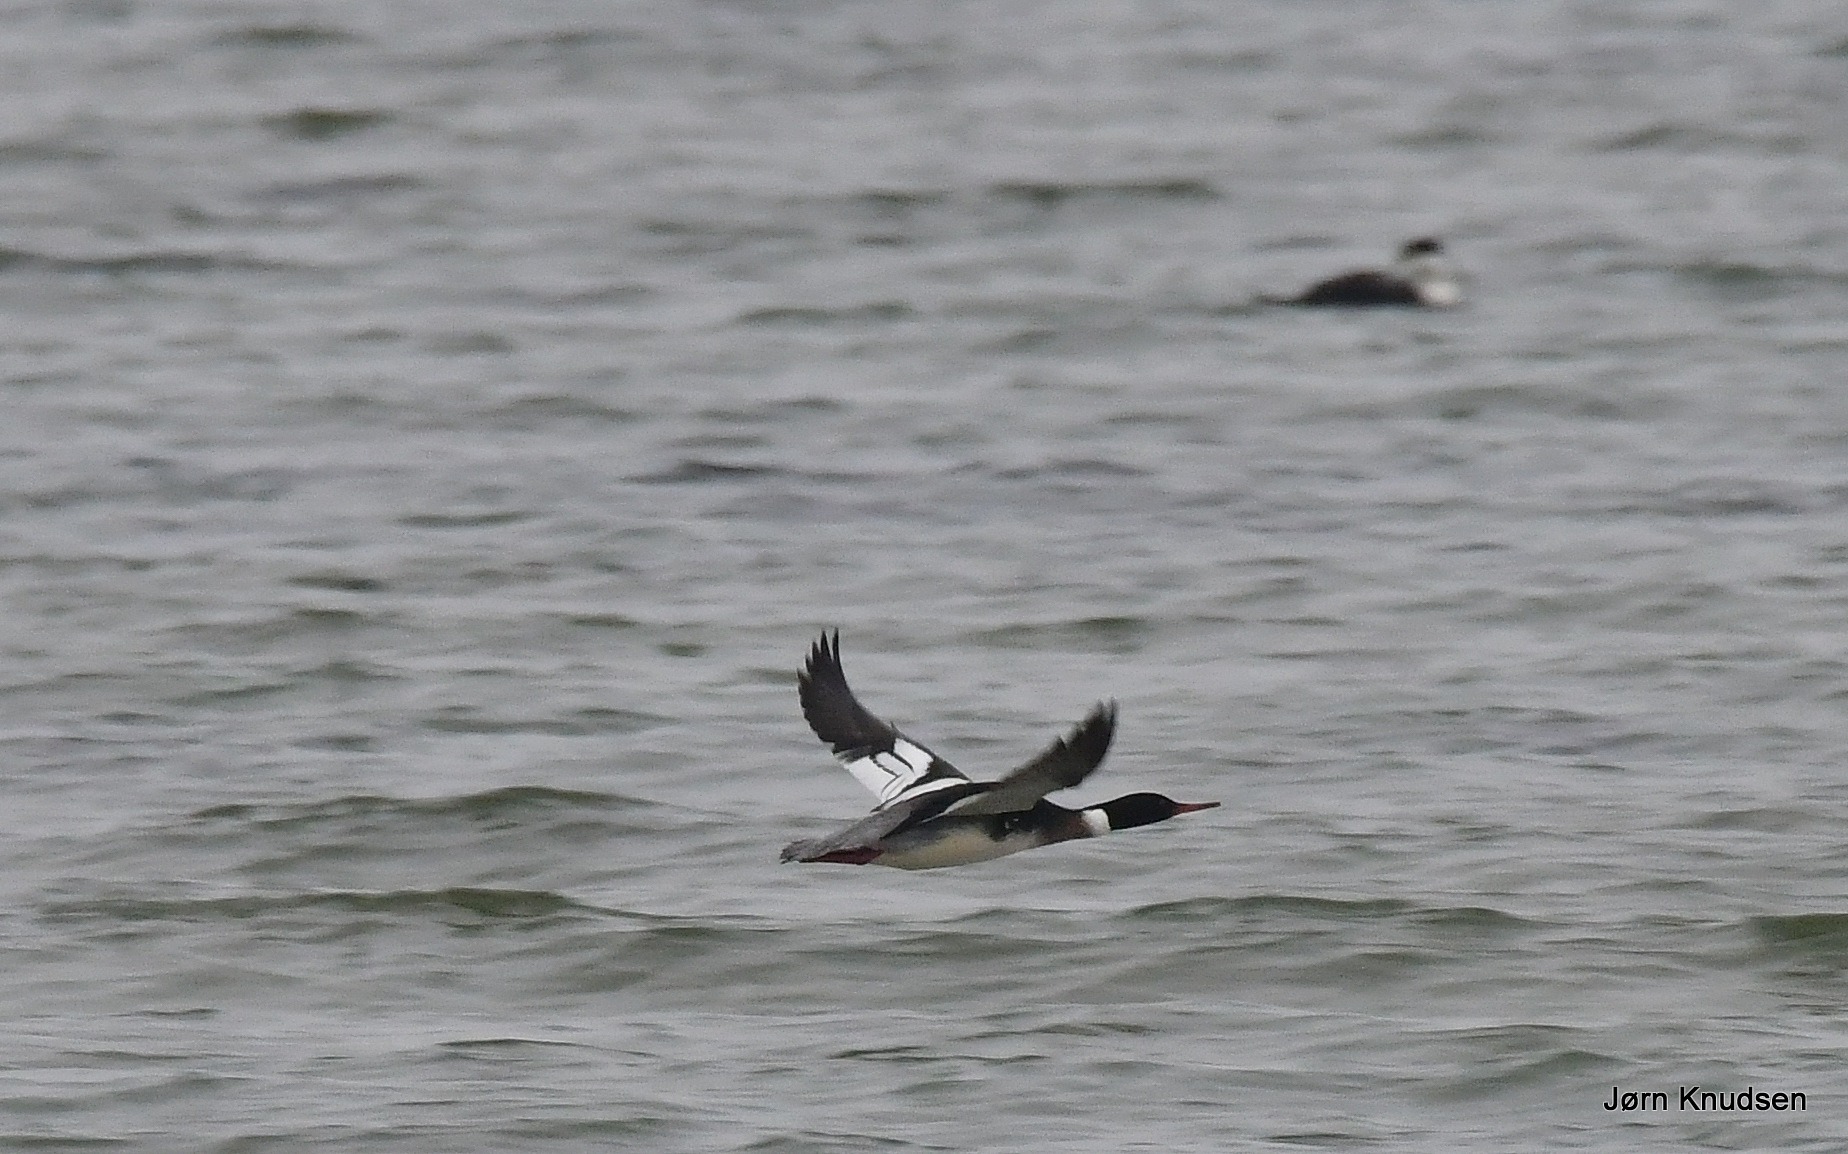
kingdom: Animalia
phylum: Chordata
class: Aves
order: Anseriformes
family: Anatidae
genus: Mergus
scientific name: Mergus serrator
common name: Toppet skallesluger
